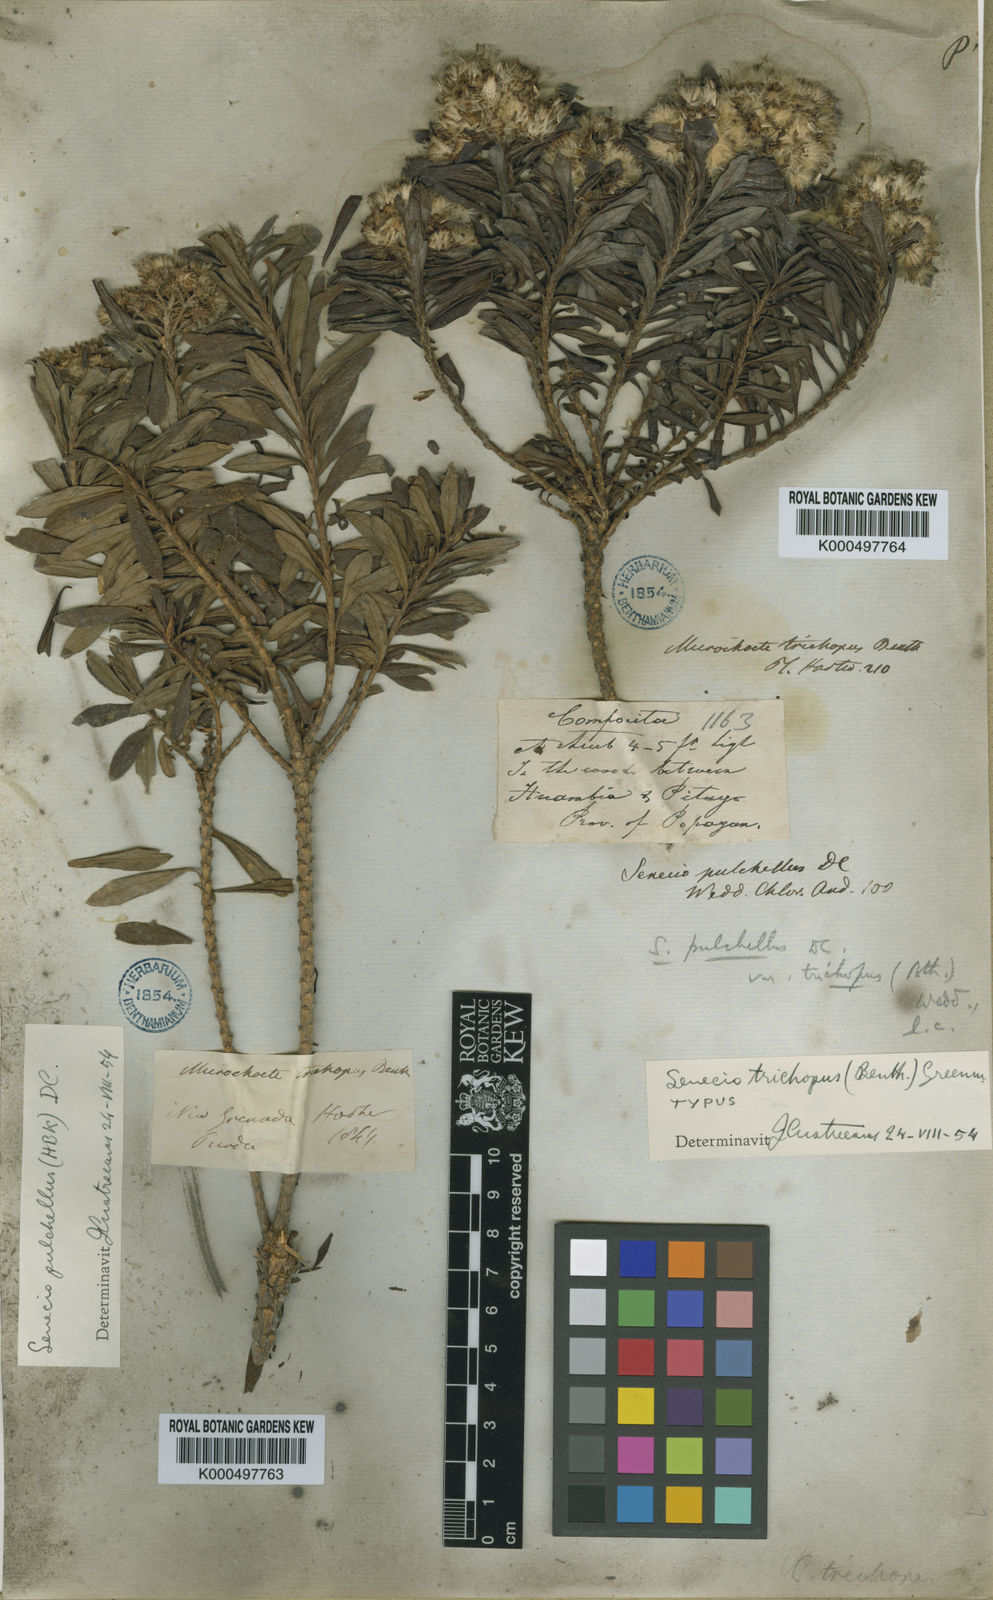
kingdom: Plantae
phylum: Tracheophyta
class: Magnoliopsida
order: Asterales
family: Asteraceae
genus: Monticalia
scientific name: Monticalia trichopus
